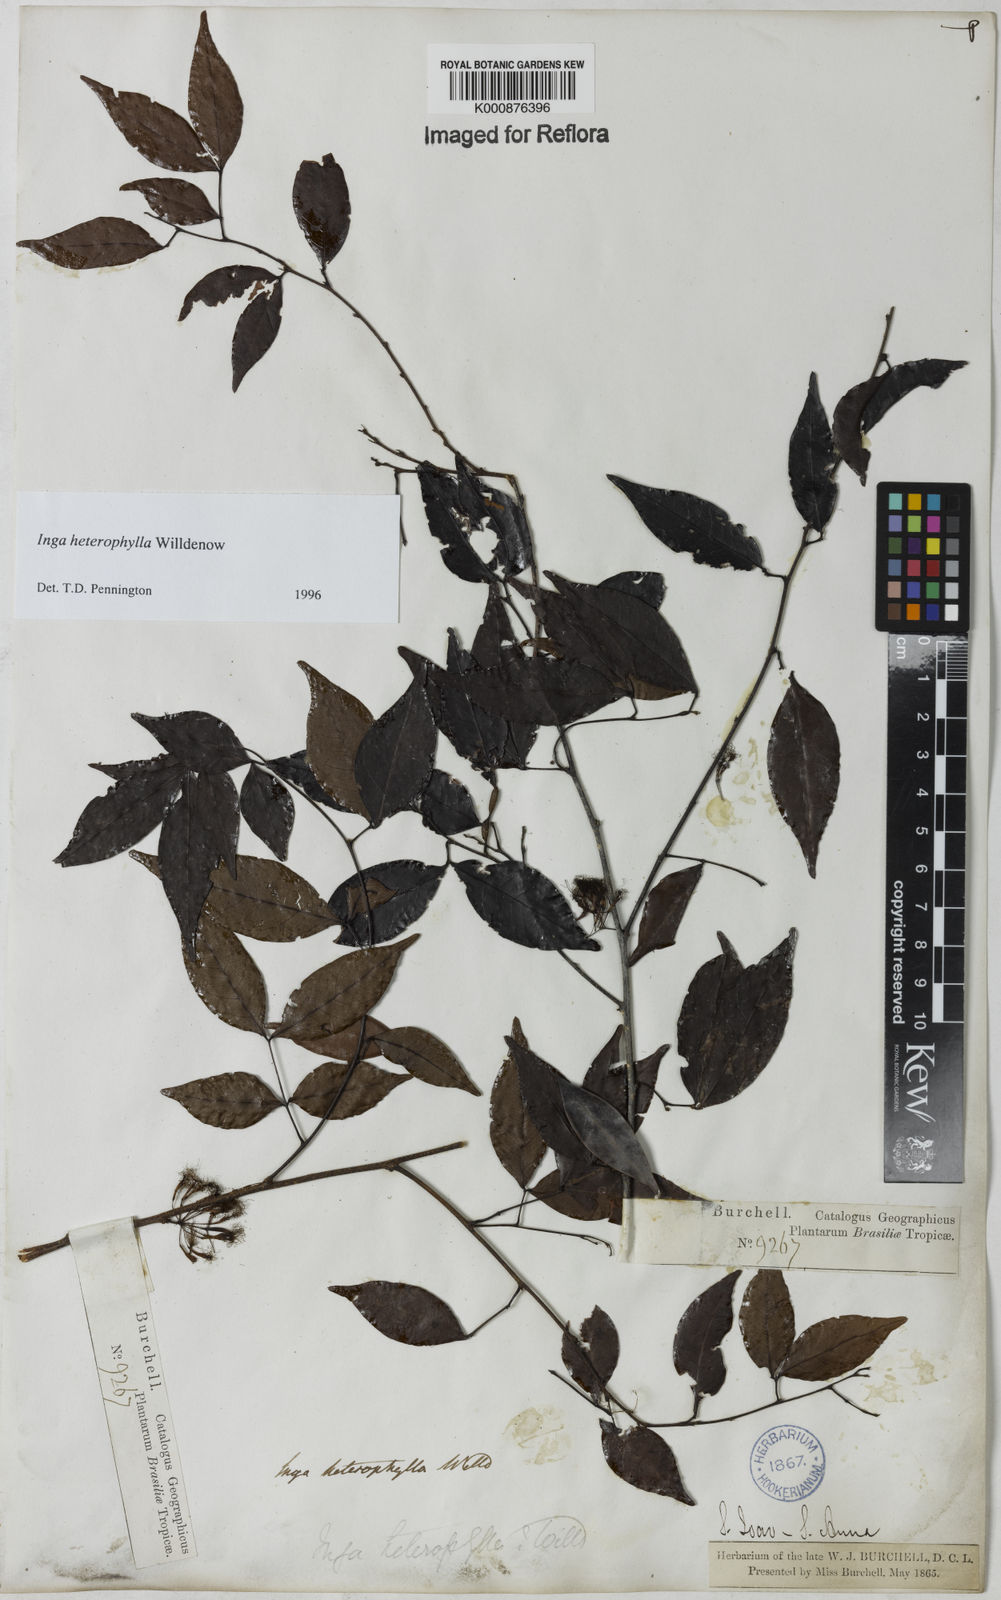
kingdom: Plantae
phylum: Tracheophyta
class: Magnoliopsida
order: Fabales
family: Fabaceae
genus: Inga
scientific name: Inga heterophylla
